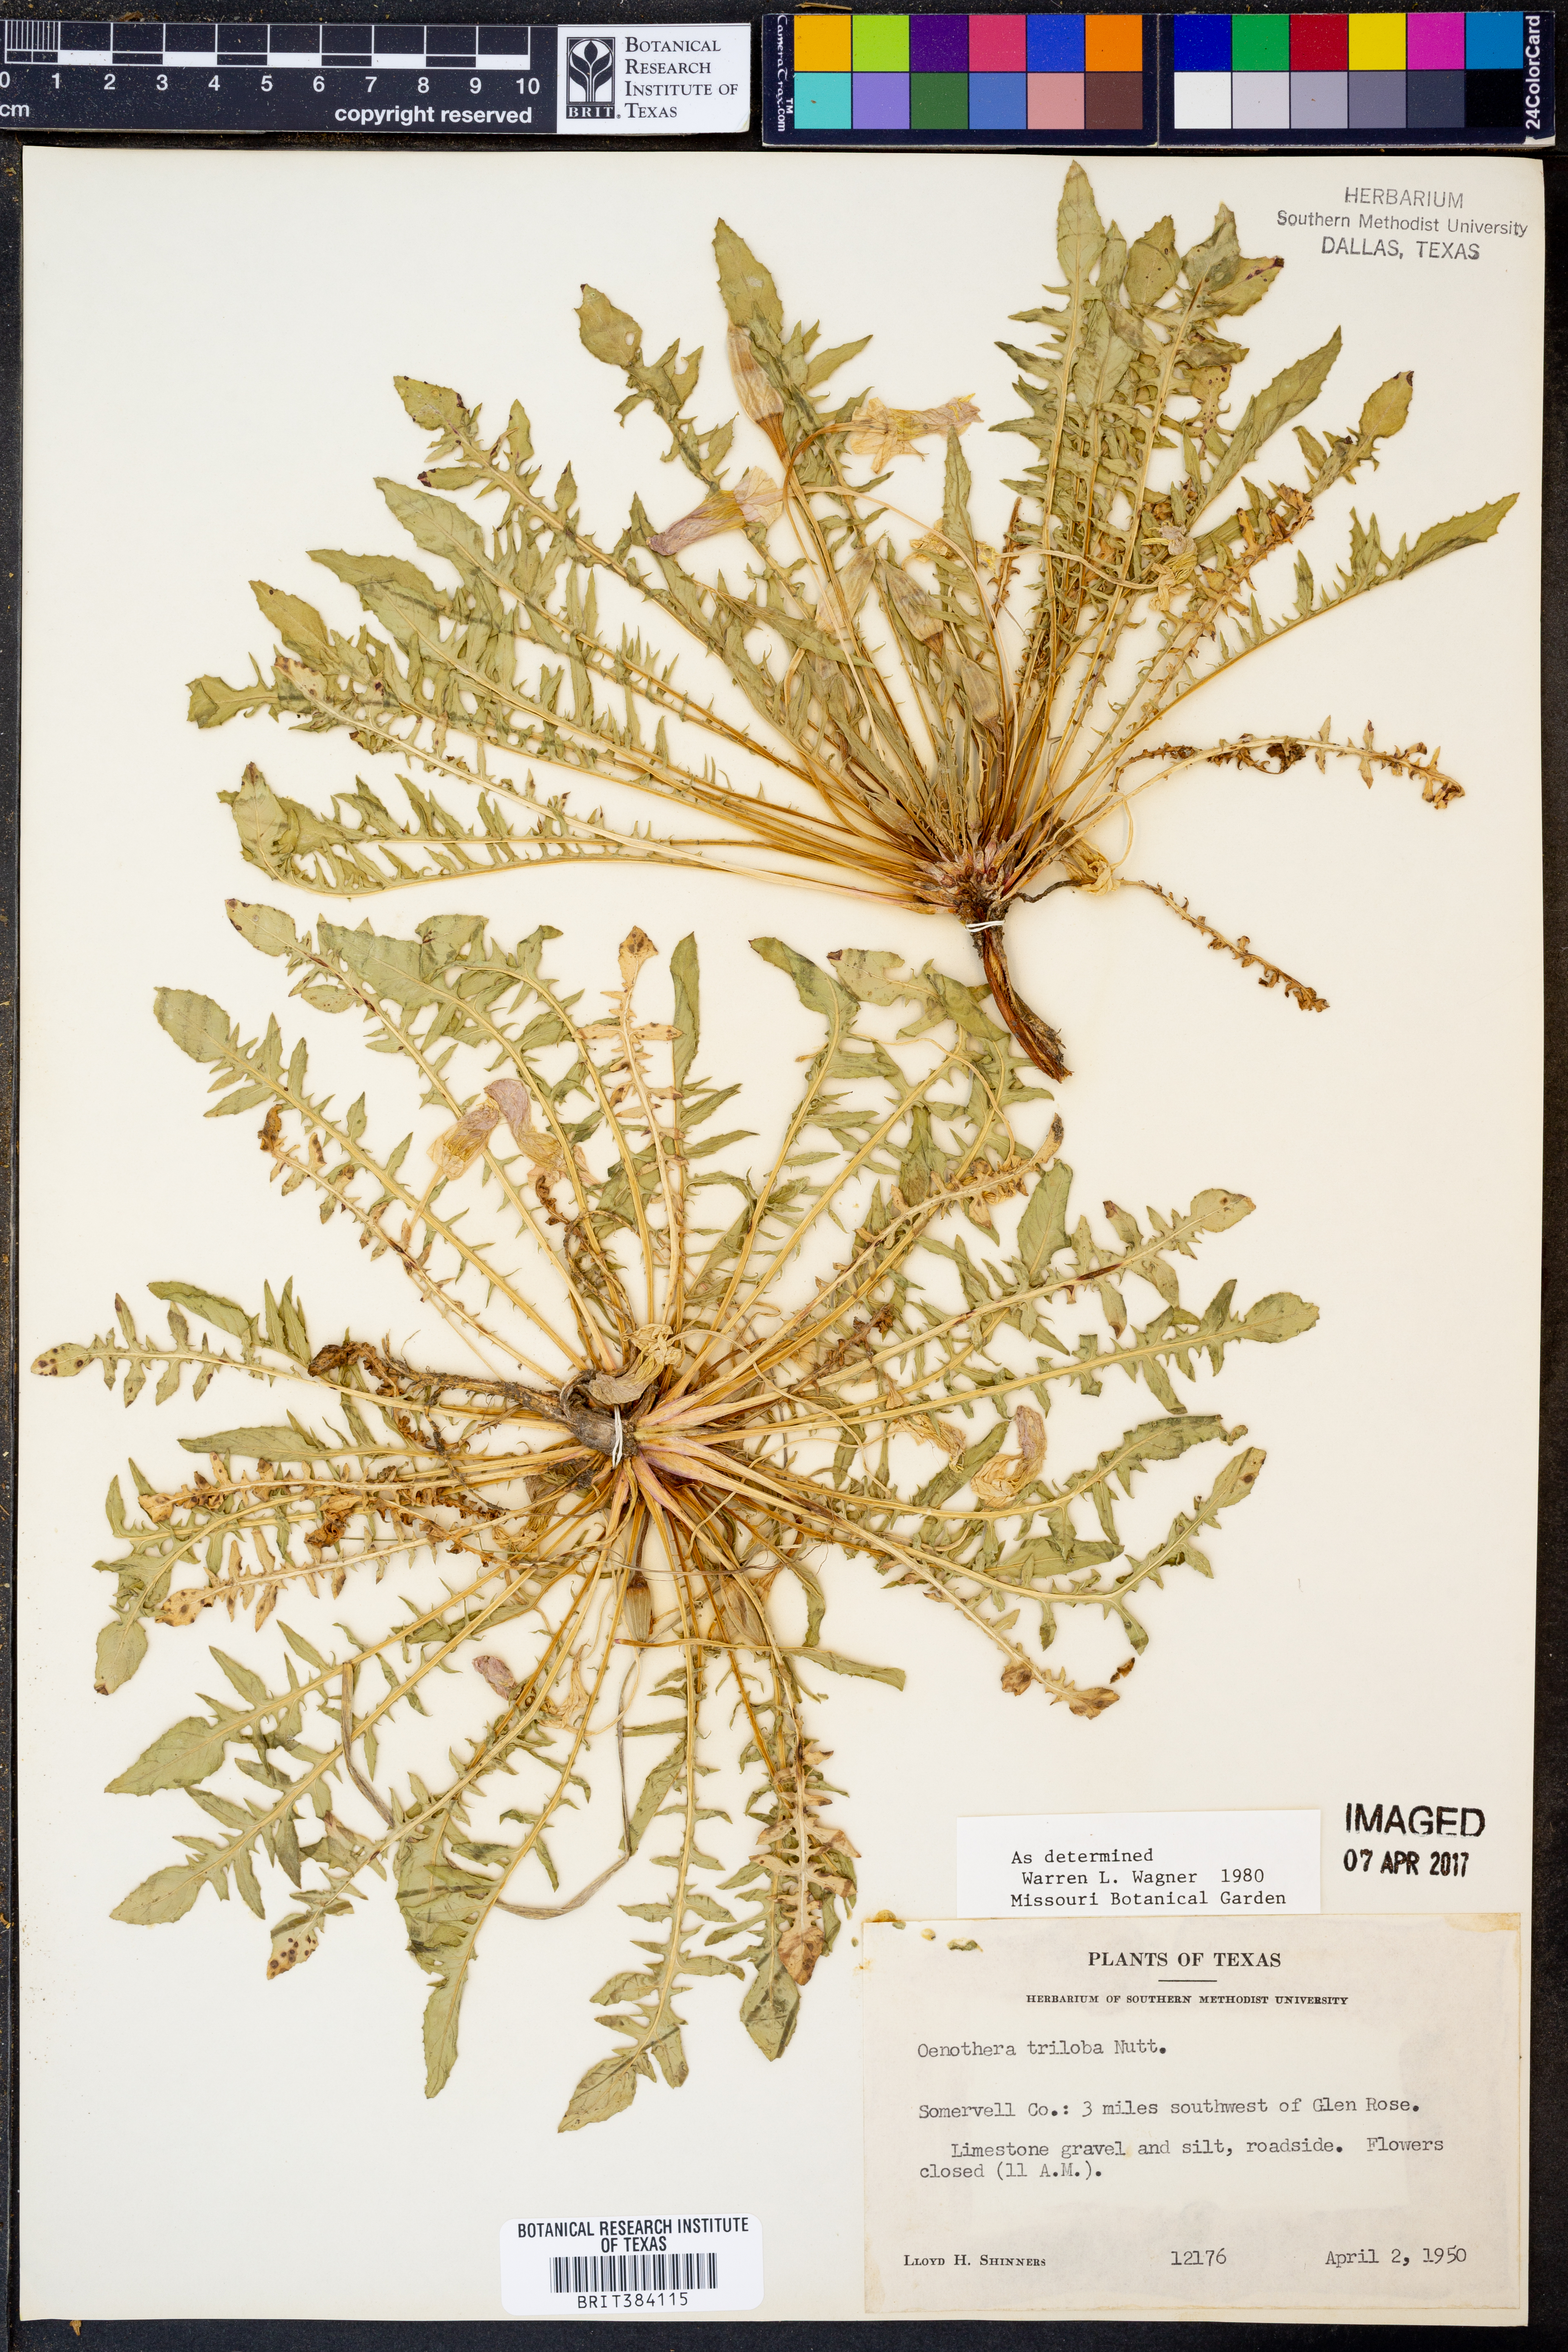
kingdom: Plantae
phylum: Tracheophyta
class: Magnoliopsida
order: Myrtales
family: Onagraceae
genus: Oenothera
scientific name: Oenothera triloba
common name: Sessile evening-primrose
